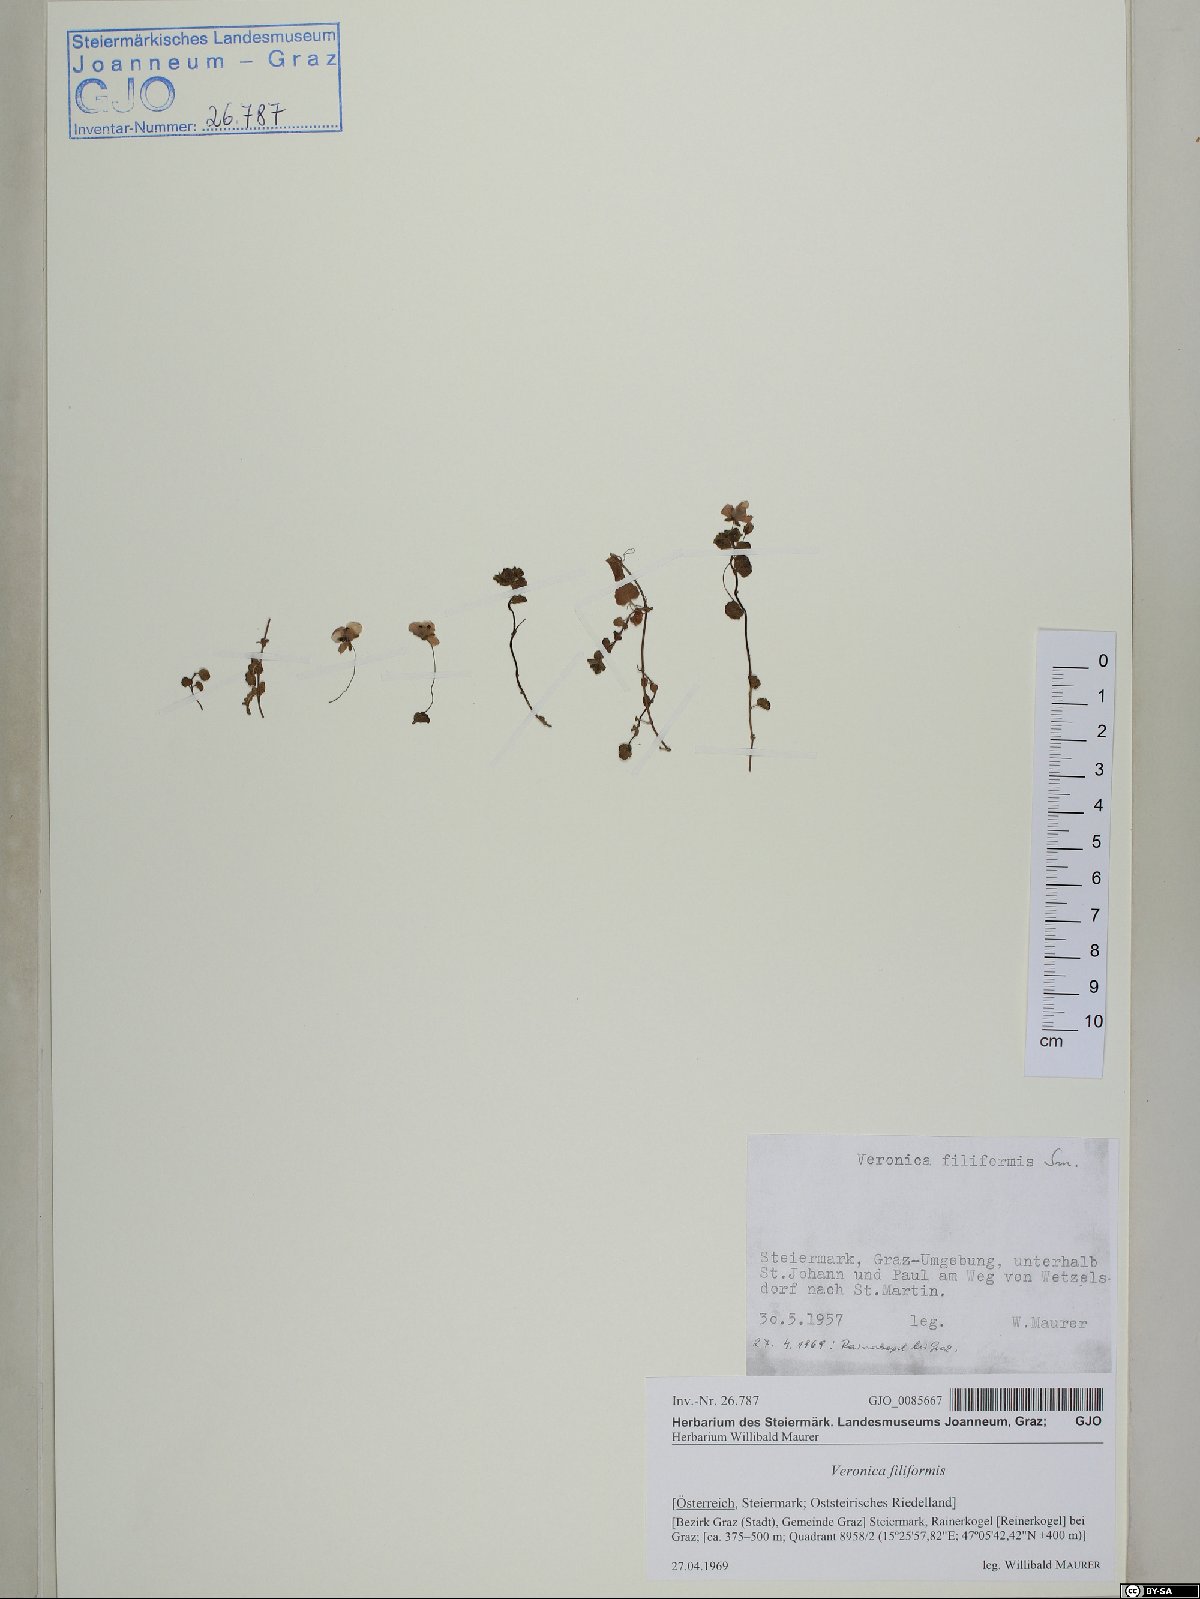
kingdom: Plantae
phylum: Tracheophyta
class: Magnoliopsida
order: Lamiales
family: Plantaginaceae
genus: Veronica
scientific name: Veronica filiformis
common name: Slender speedwell
